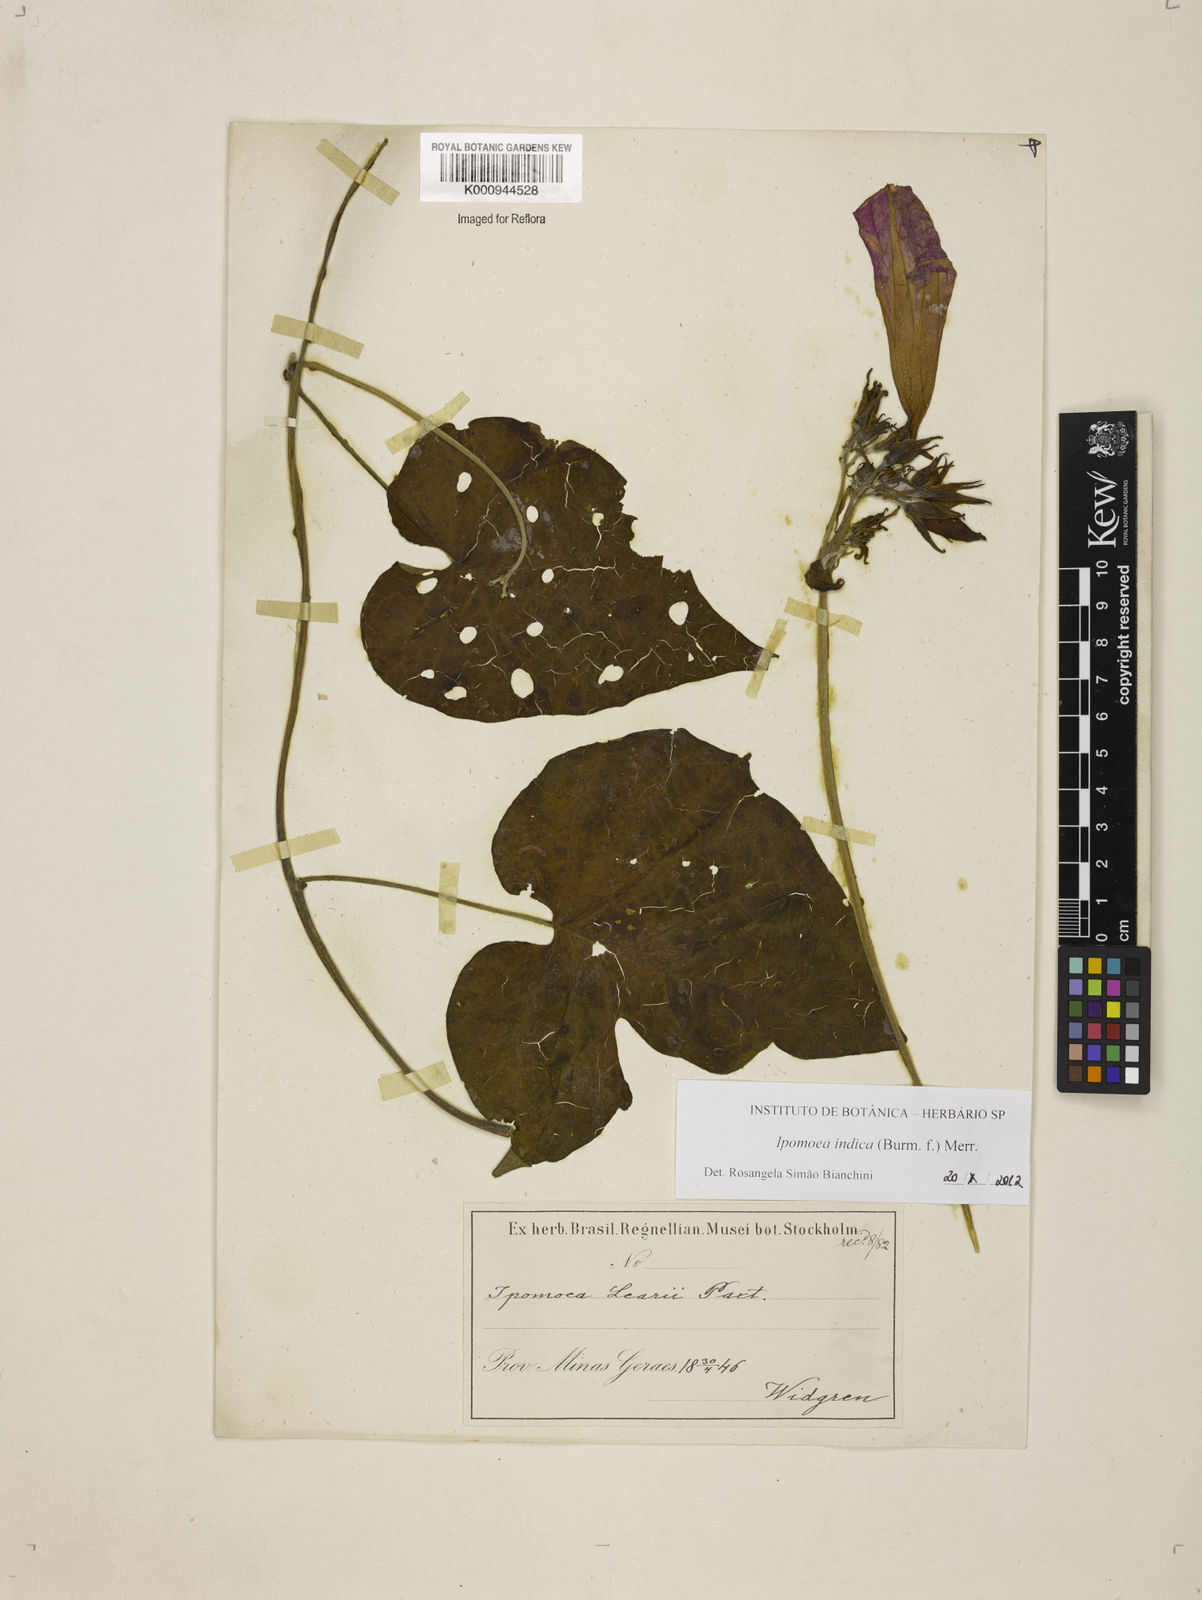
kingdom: Plantae
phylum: Tracheophyta
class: Magnoliopsida
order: Solanales
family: Convolvulaceae
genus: Ipomoea
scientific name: Ipomoea indica
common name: Blue dawnflower
